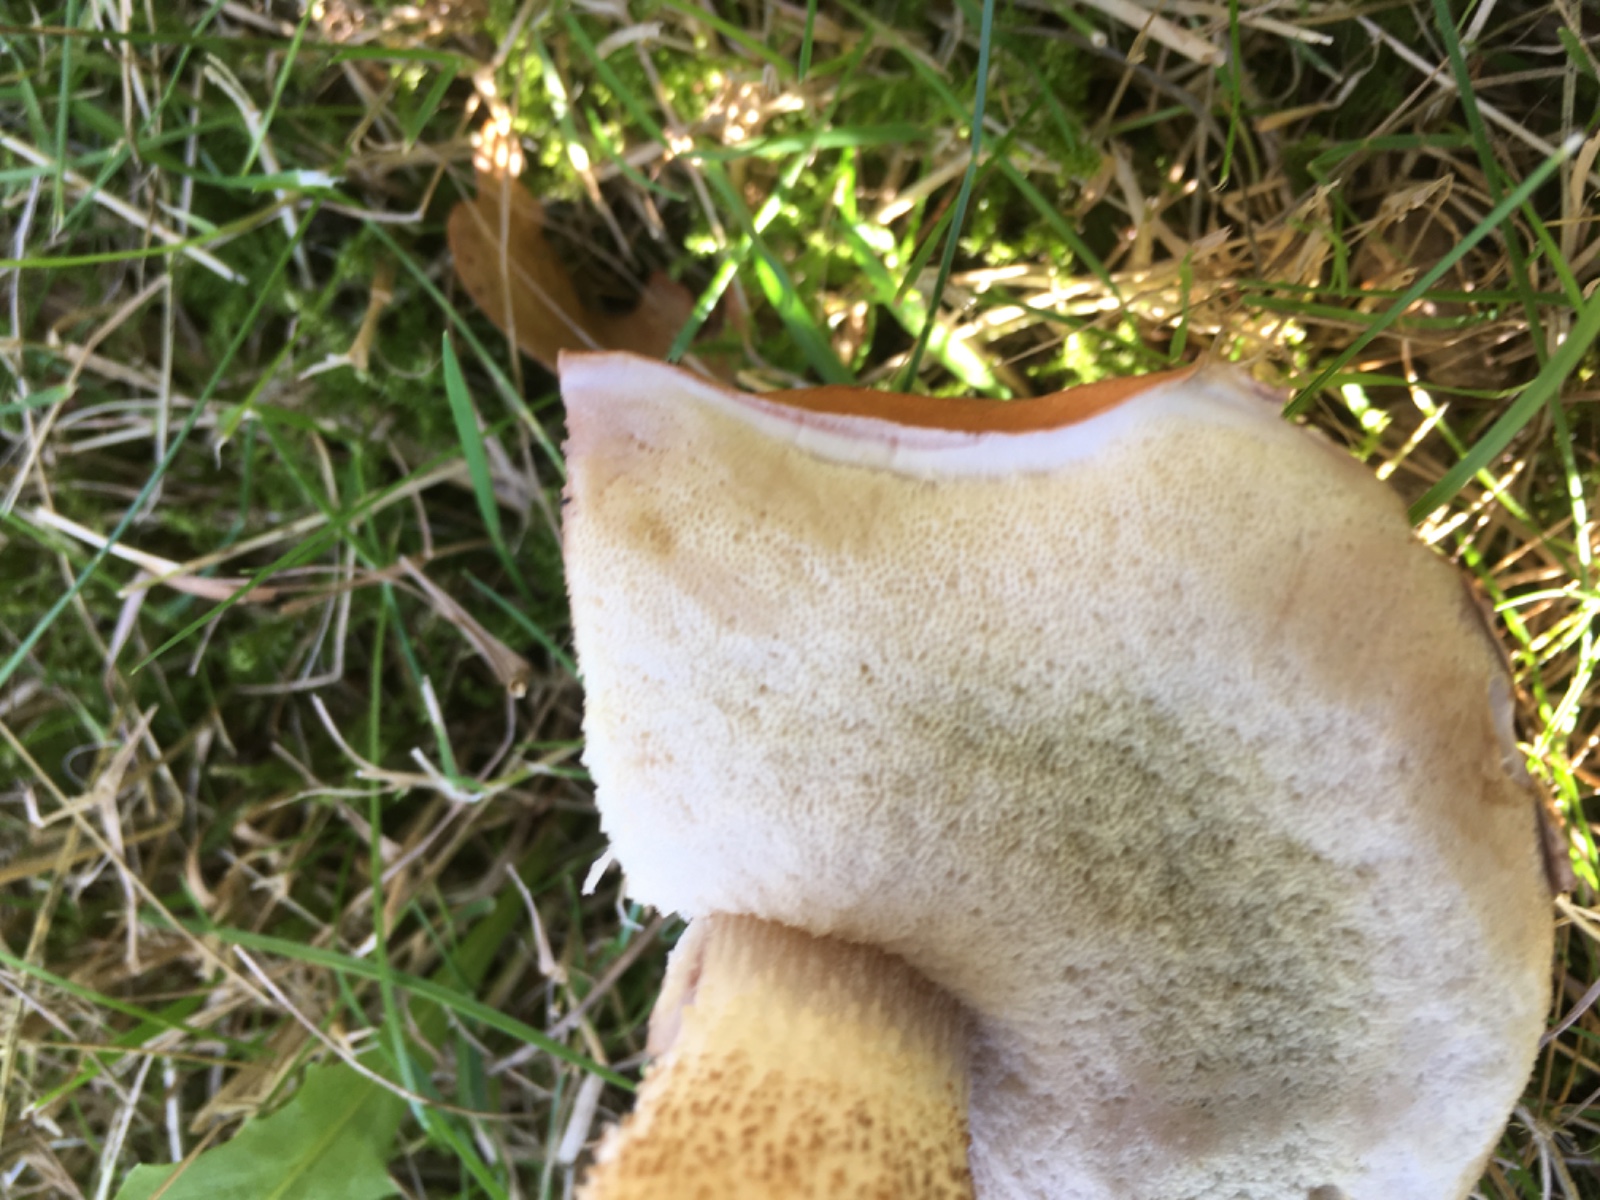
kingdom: Fungi
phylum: Basidiomycota
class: Agaricomycetes
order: Boletales
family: Boletaceae
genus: Leccinum
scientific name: Leccinum duriusculum
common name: poppel-skælrørhat
